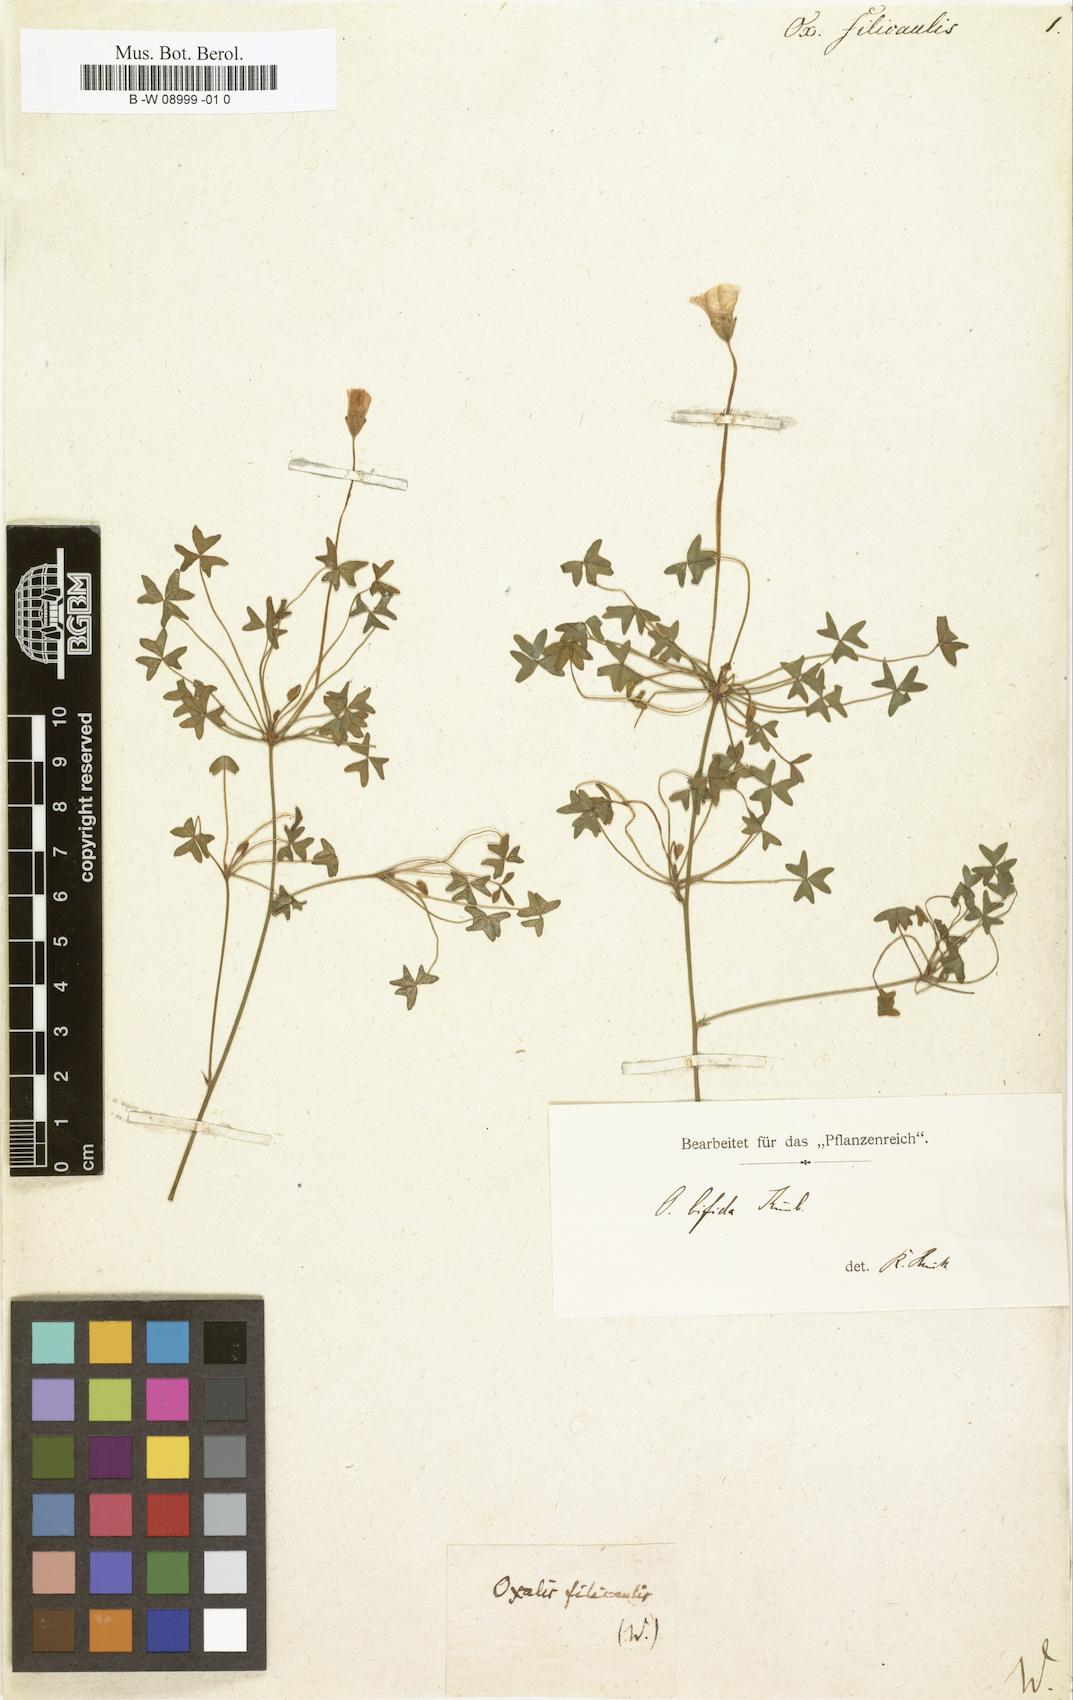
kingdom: Plantae
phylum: Tracheophyta
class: Magnoliopsida
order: Oxalidales
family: Oxalidaceae
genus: Oxalis
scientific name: Oxalis bifida
